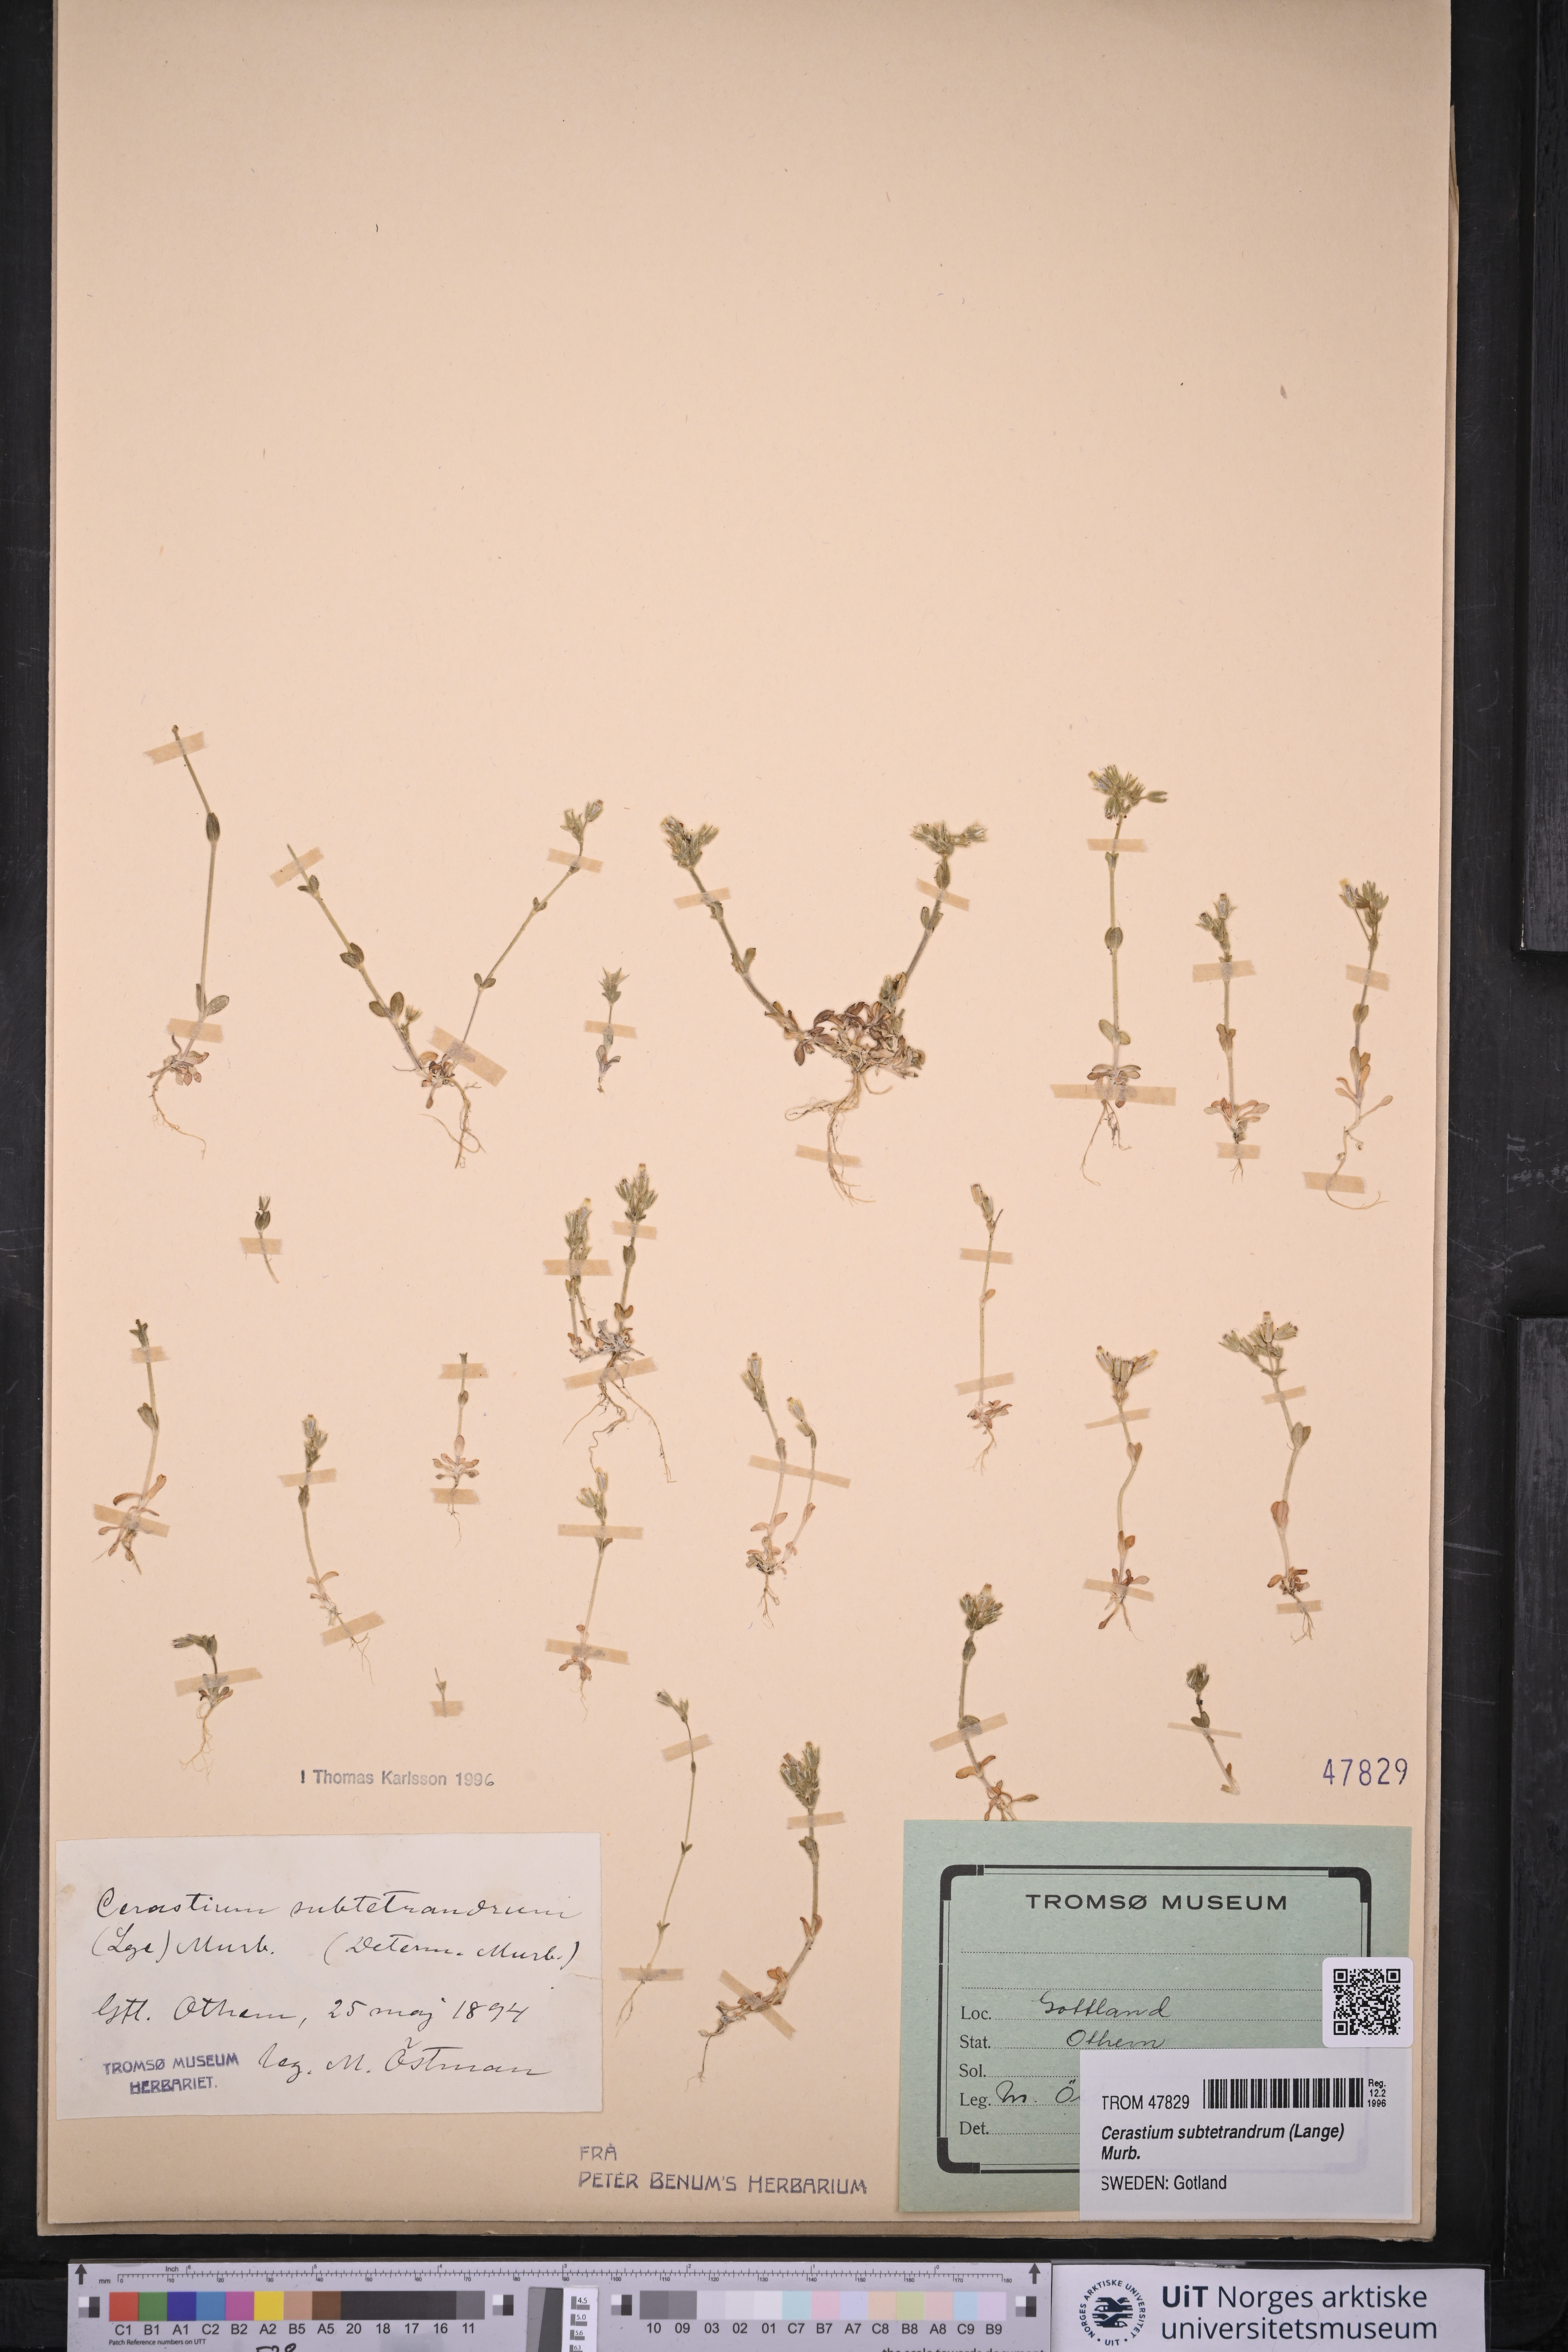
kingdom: Plantae
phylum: Tracheophyta
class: Magnoliopsida
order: Caryophyllales
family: Caryophyllaceae
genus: Cerastium
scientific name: Cerastium subtetrandrum
